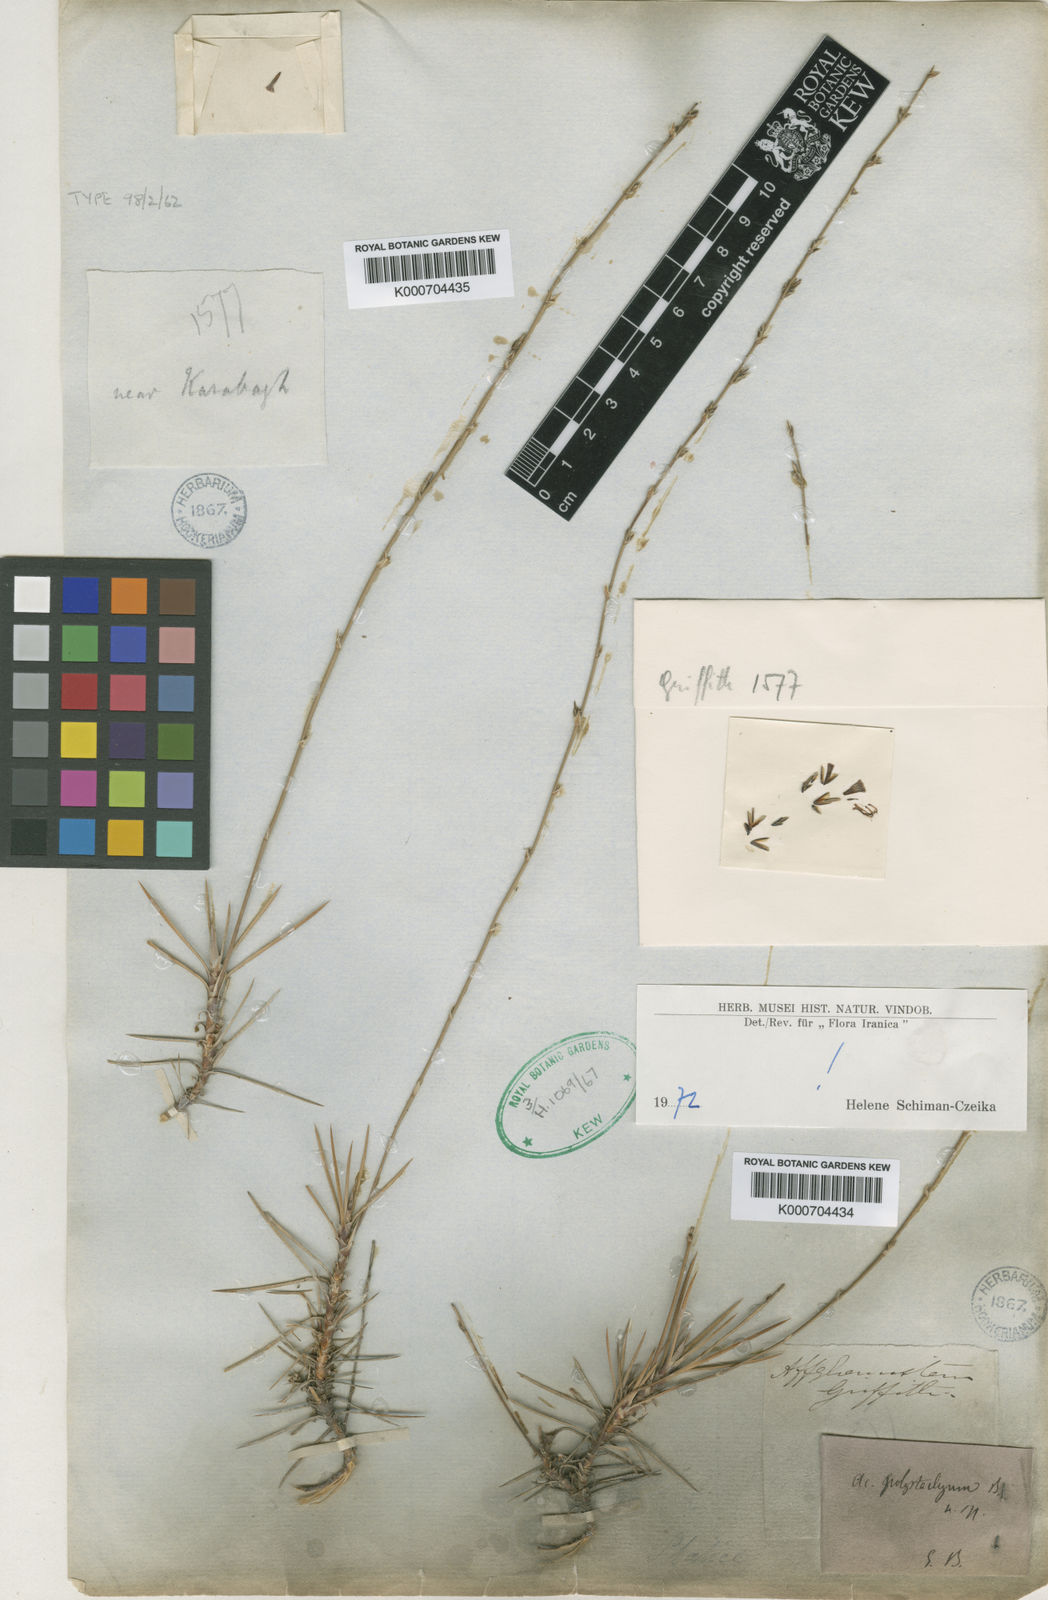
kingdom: Plantae
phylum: Tracheophyta
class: Magnoliopsida
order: Caryophyllales
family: Plumbaginaceae
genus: Acantholimon
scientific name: Acantholimon polystachyum
